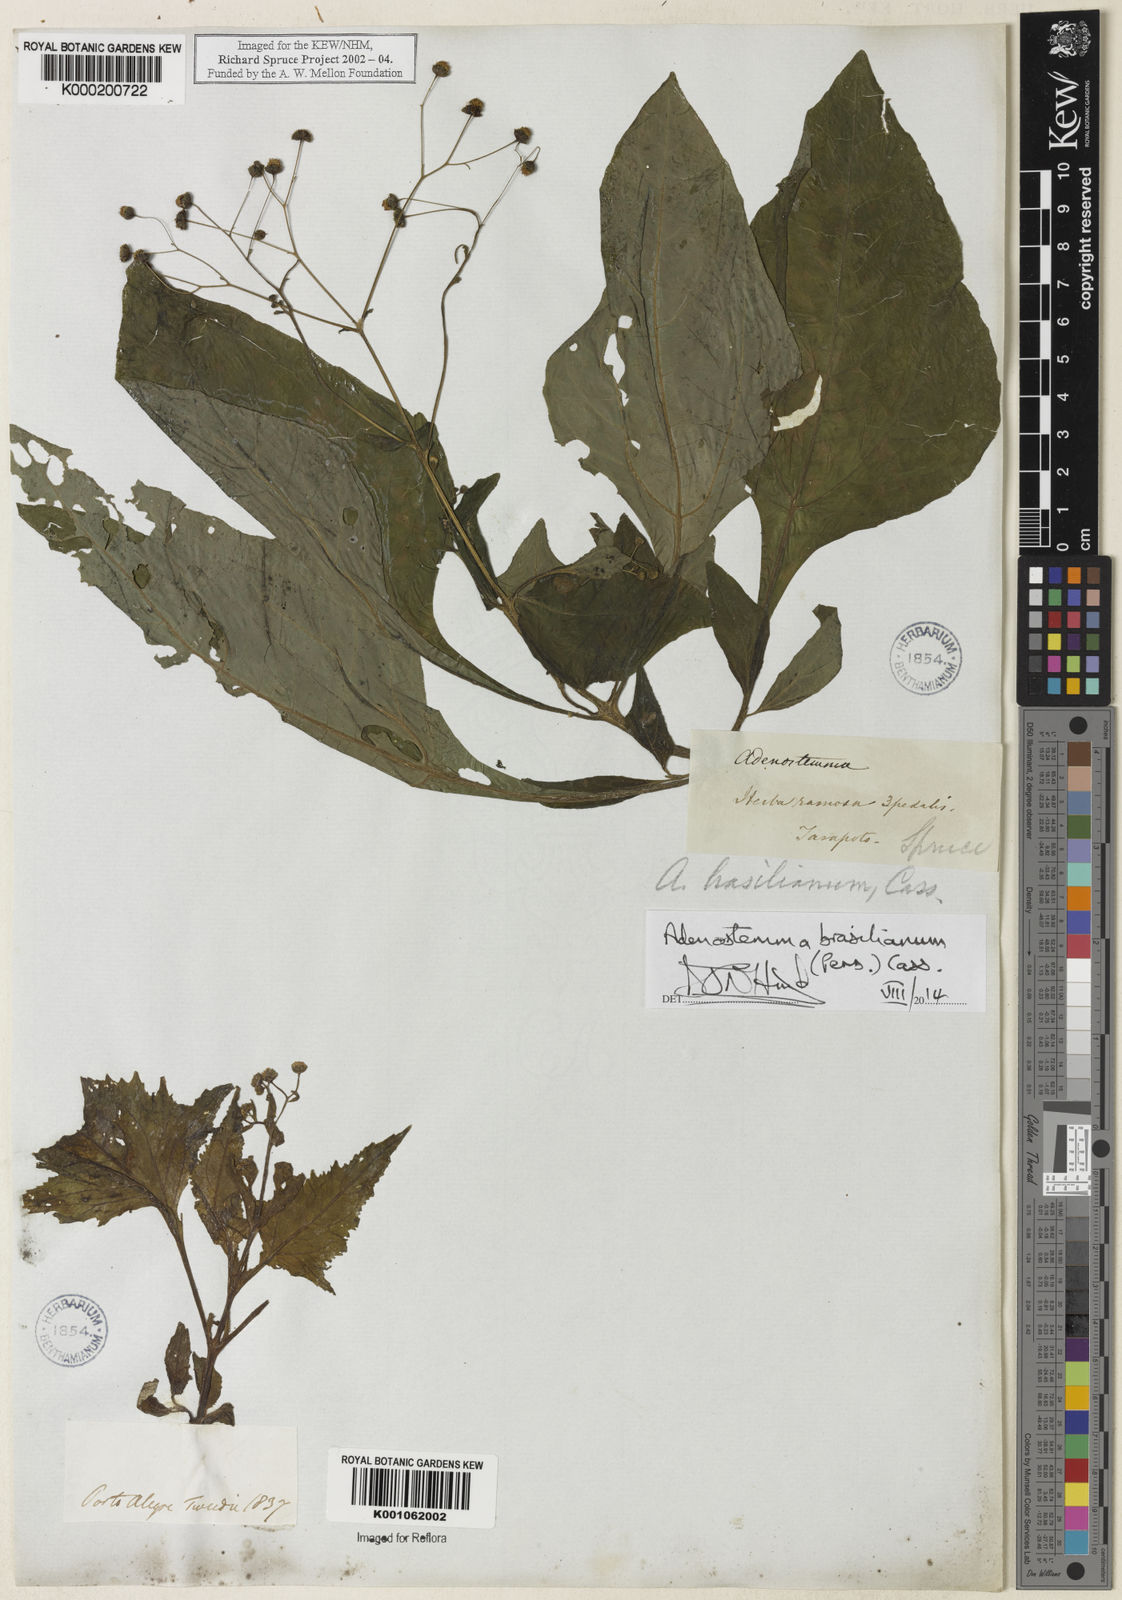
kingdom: Plantae
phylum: Tracheophyta
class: Magnoliopsida
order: Asterales
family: Asteraceae
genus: Adenostemma
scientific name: Adenostemma brasilianum
